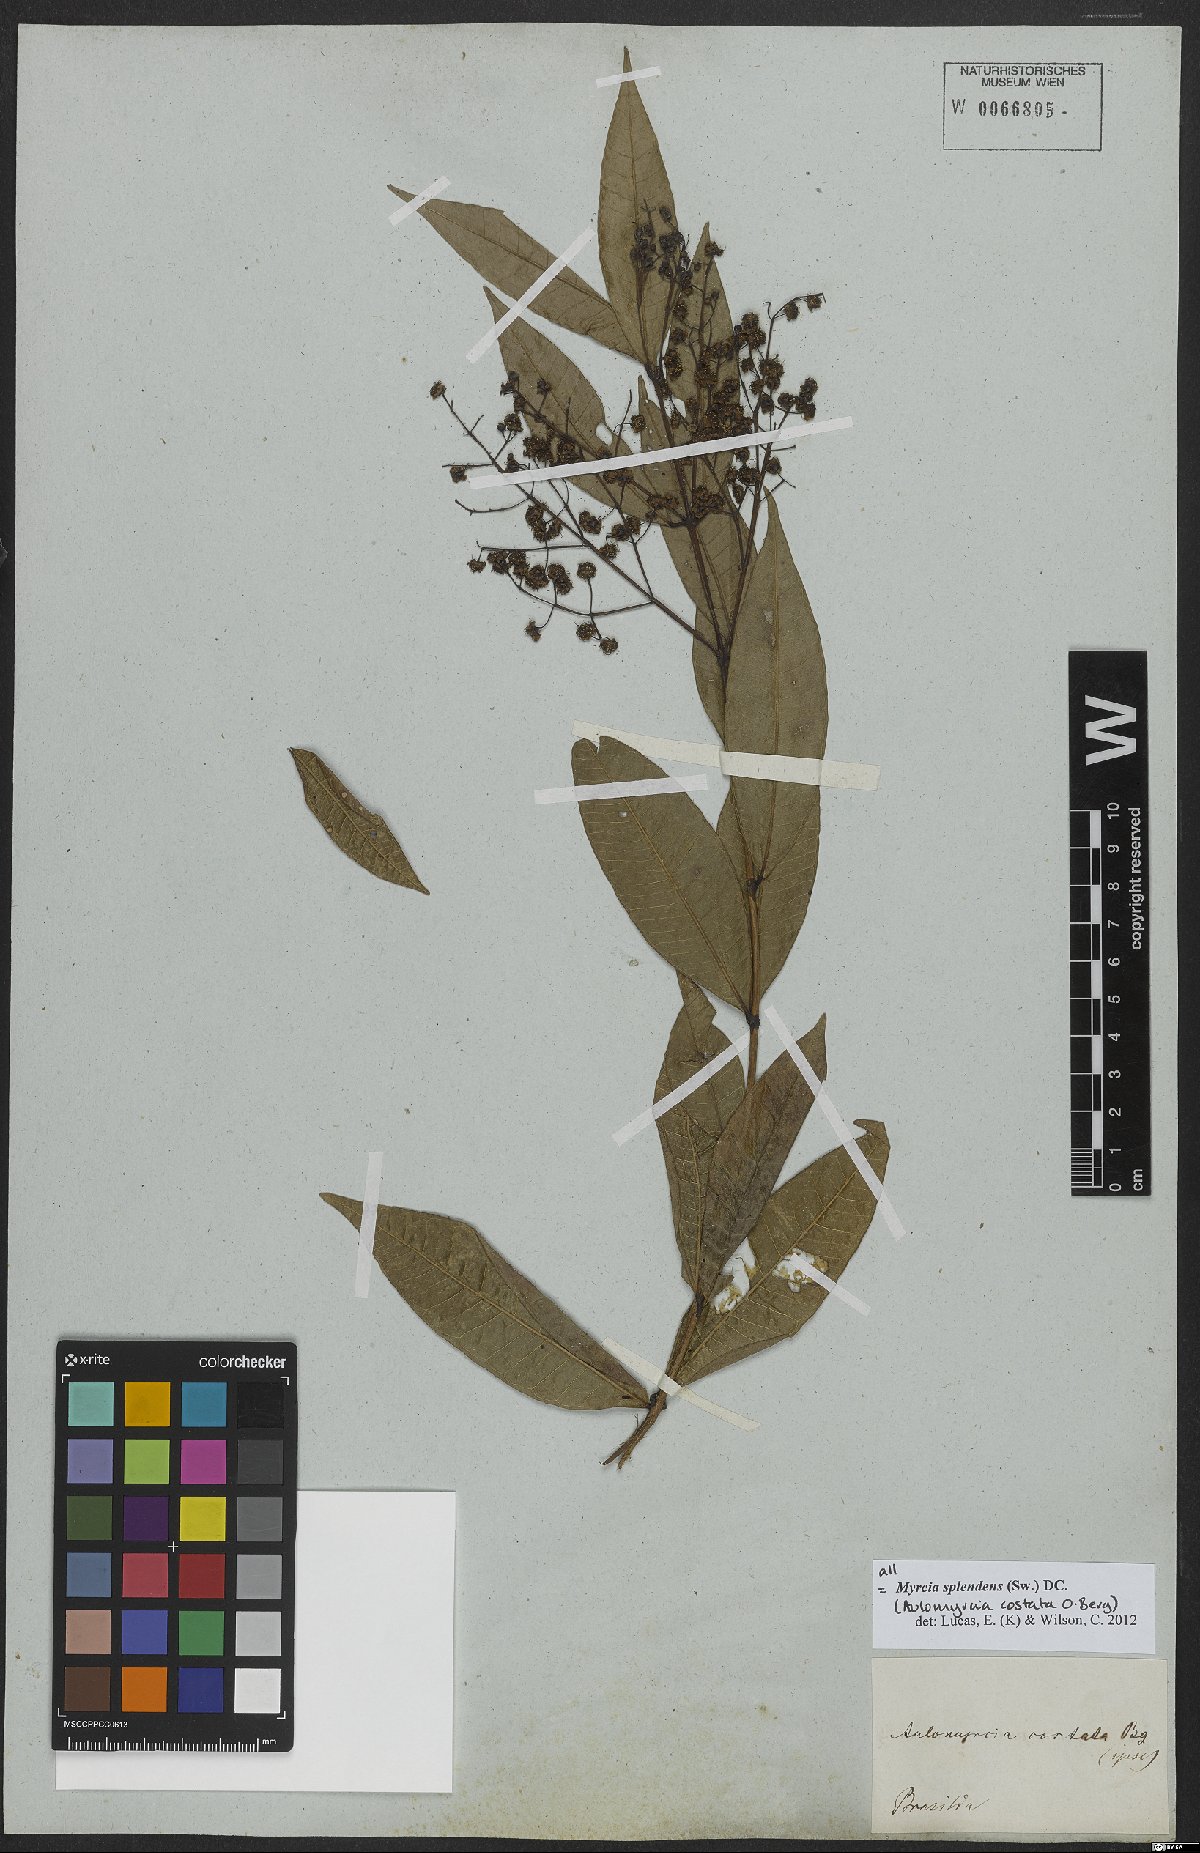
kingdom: Plantae
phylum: Tracheophyta
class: Magnoliopsida
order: Myrtales
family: Myrtaceae
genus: Myrcia
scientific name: Myrcia splendens
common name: Surinam cherry
